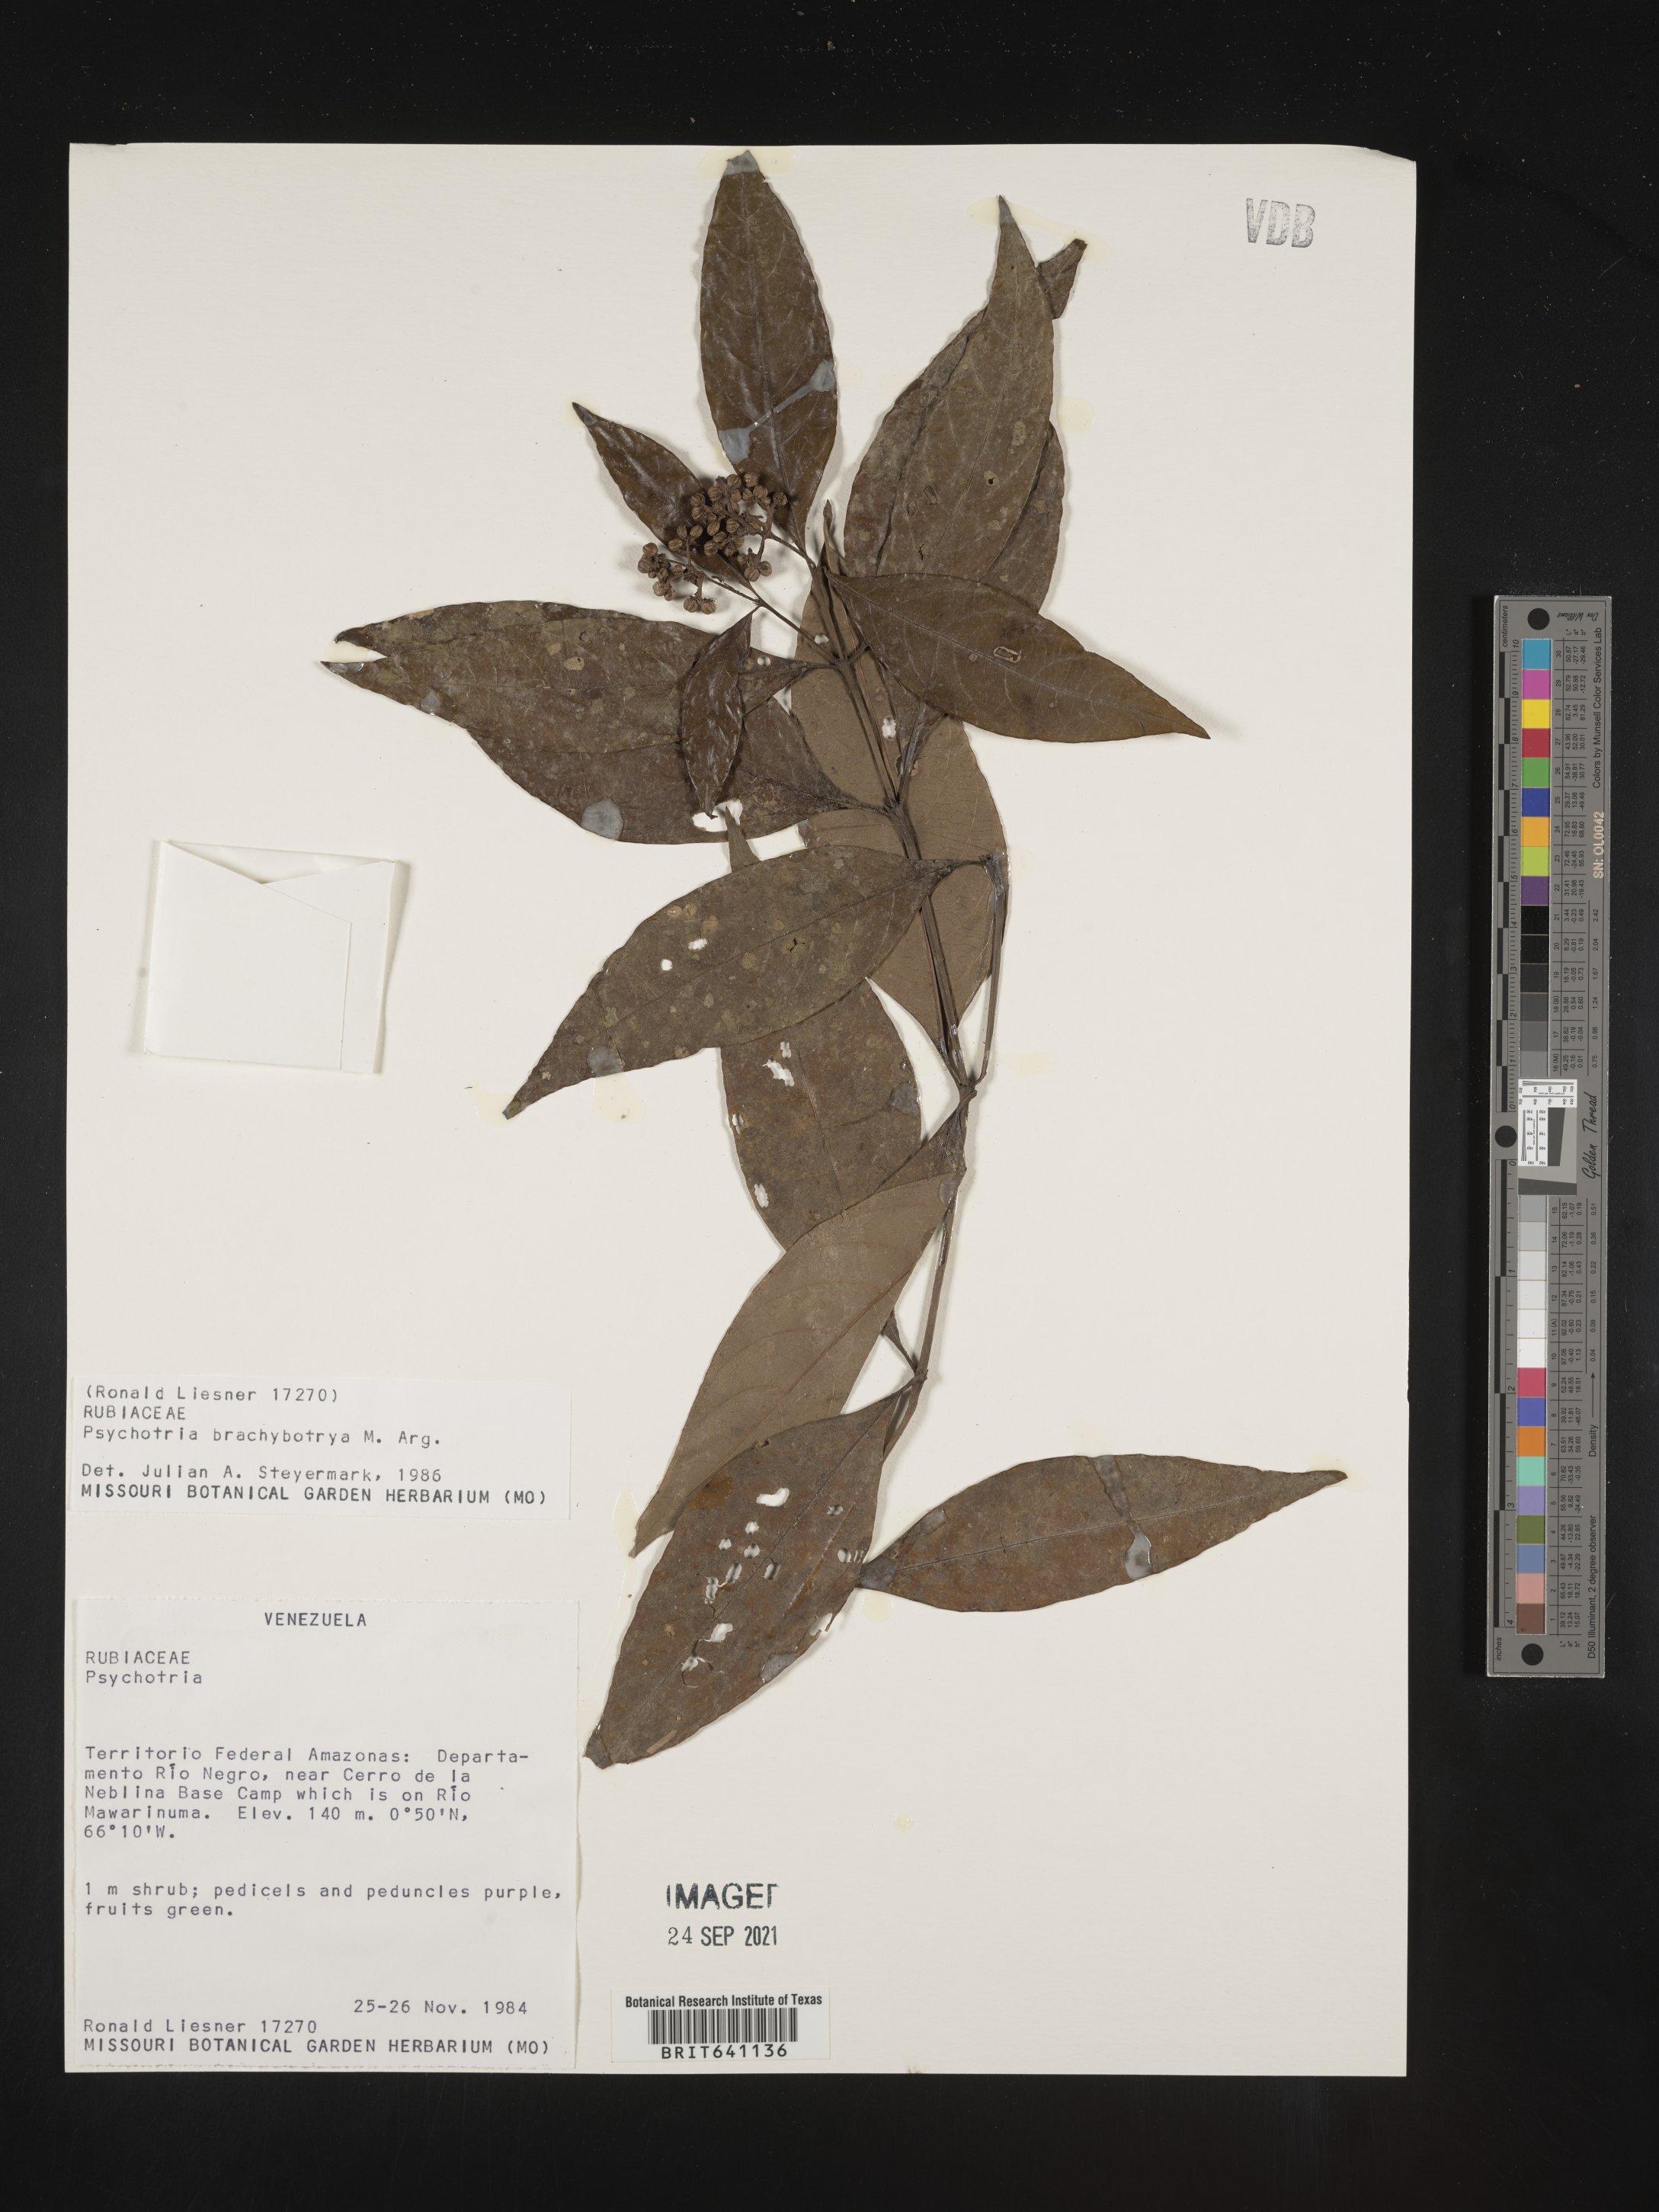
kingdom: Plantae
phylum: Tracheophyta
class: Magnoliopsida
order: Gentianales
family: Rubiaceae
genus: Psychotria
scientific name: Psychotria
